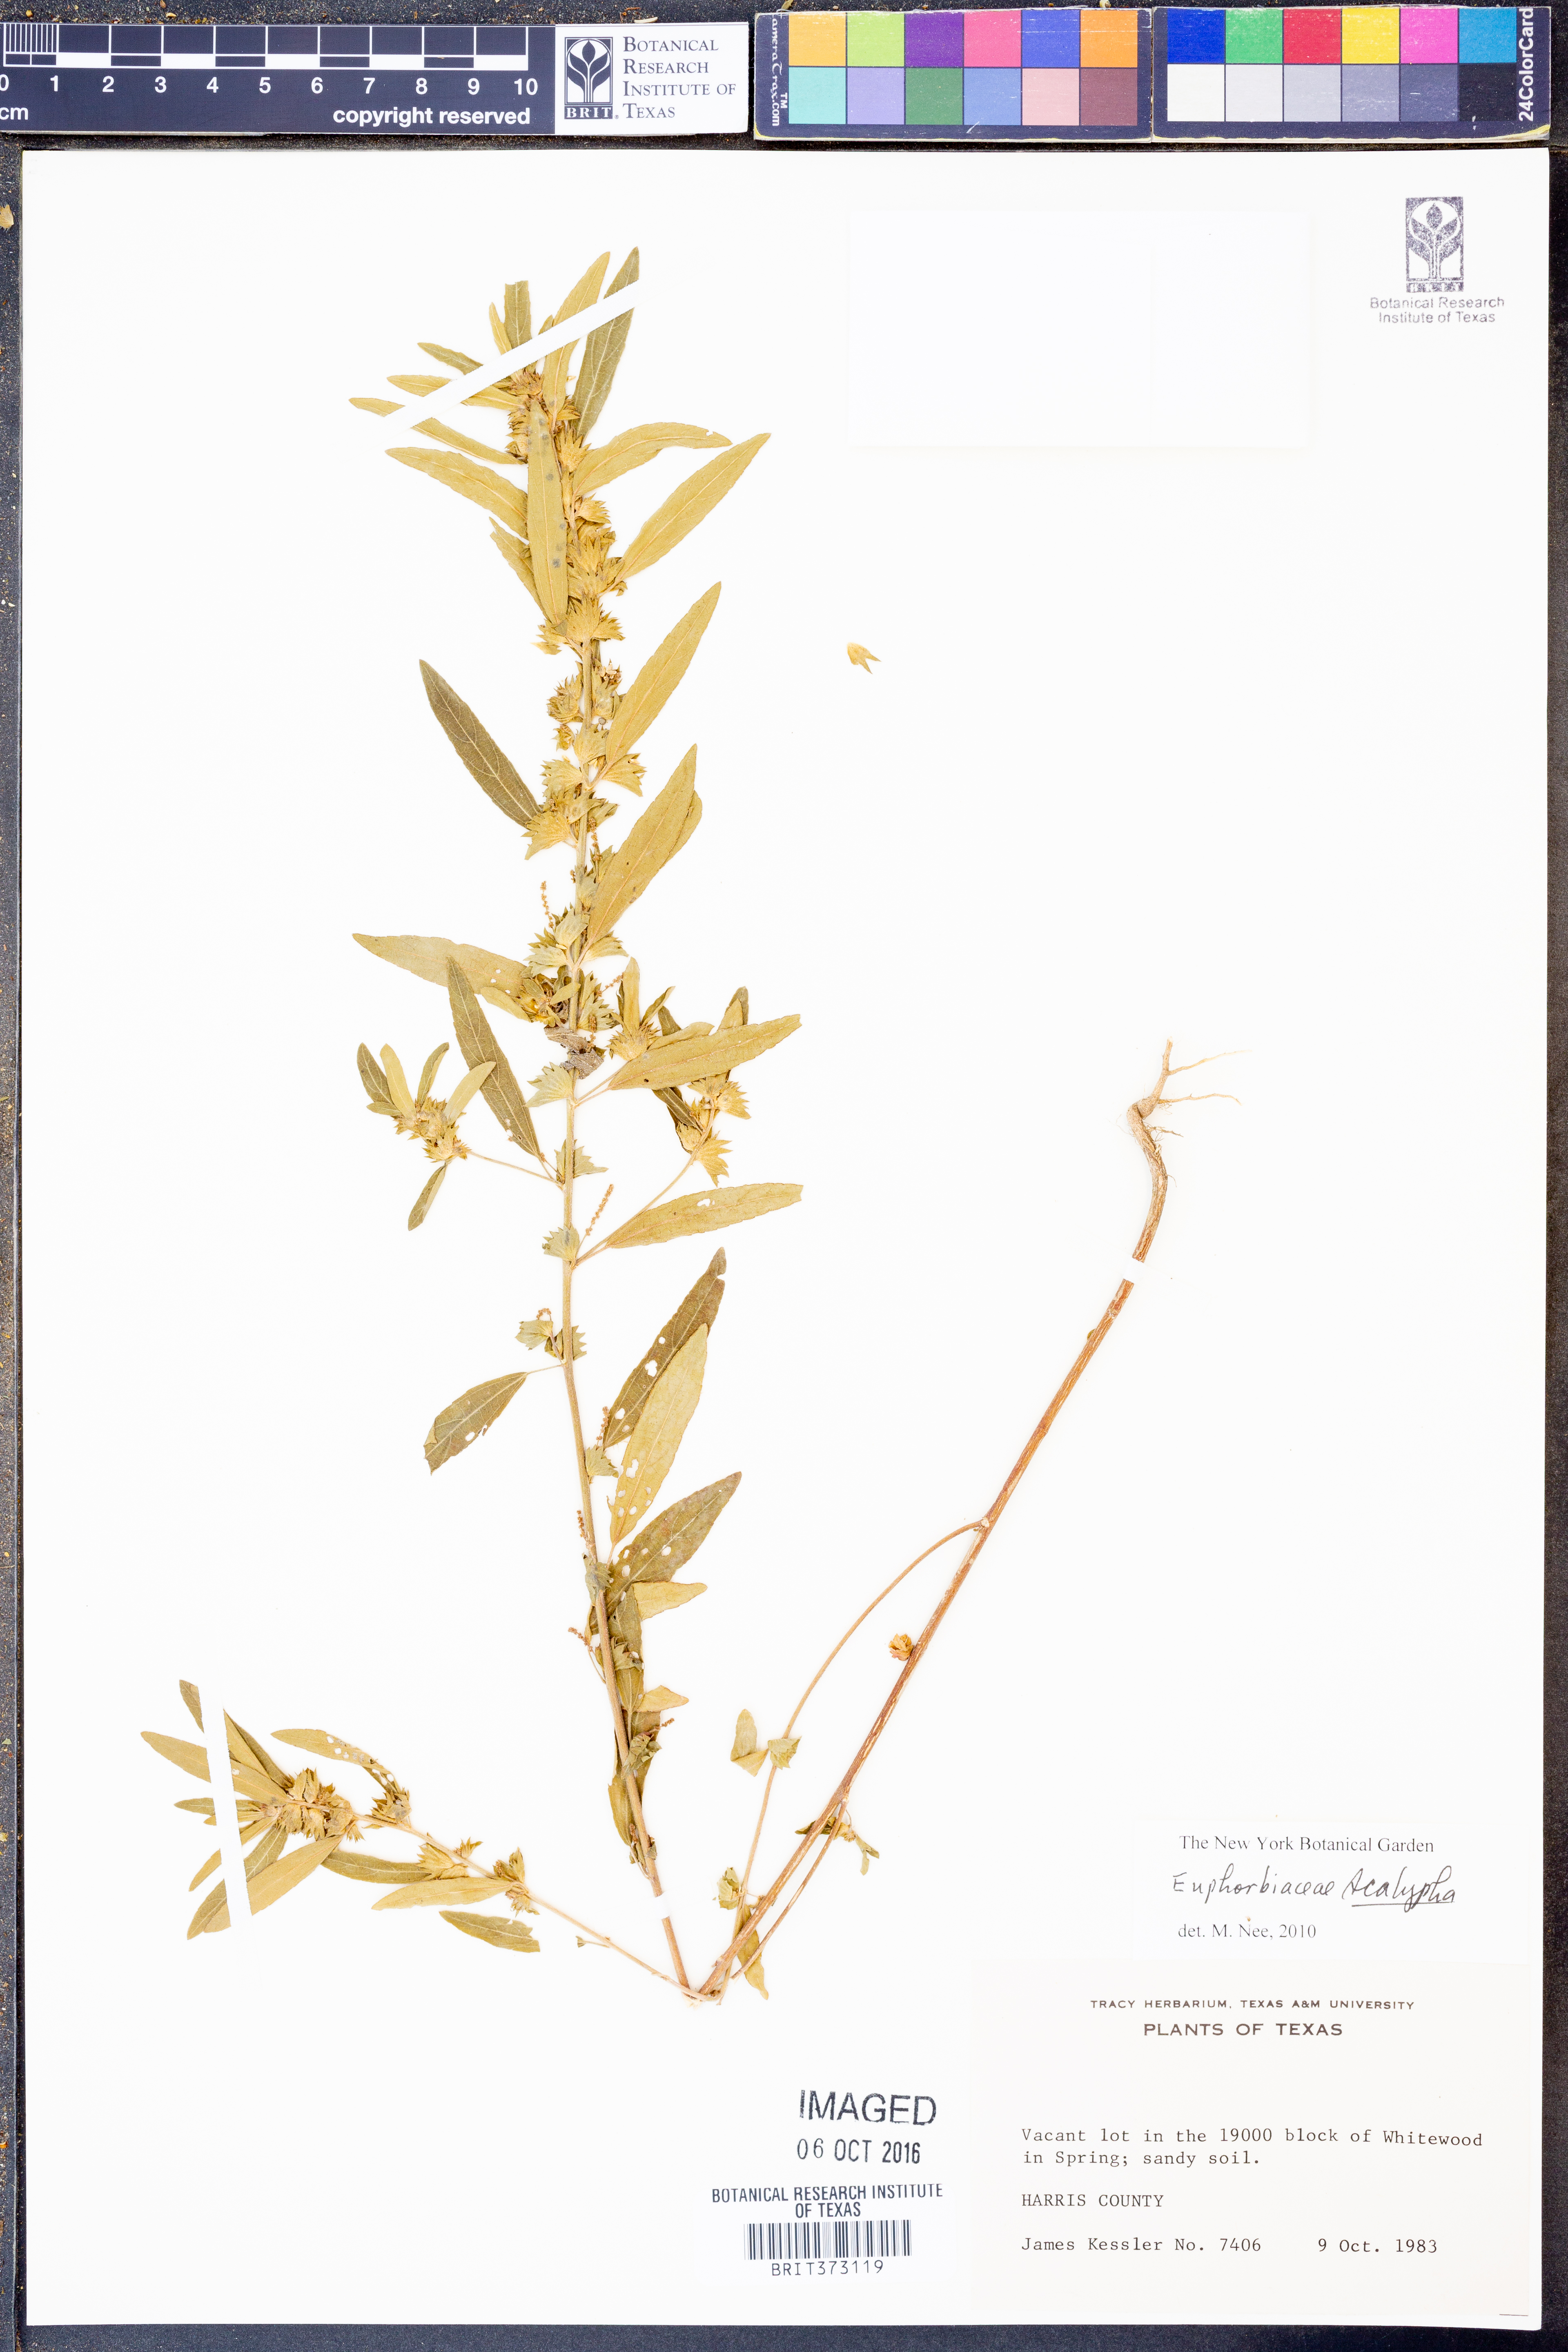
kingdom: Plantae
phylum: Tracheophyta
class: Magnoliopsida
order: Malpighiales
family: Euphorbiaceae
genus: Acalypha
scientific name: Acalypha
